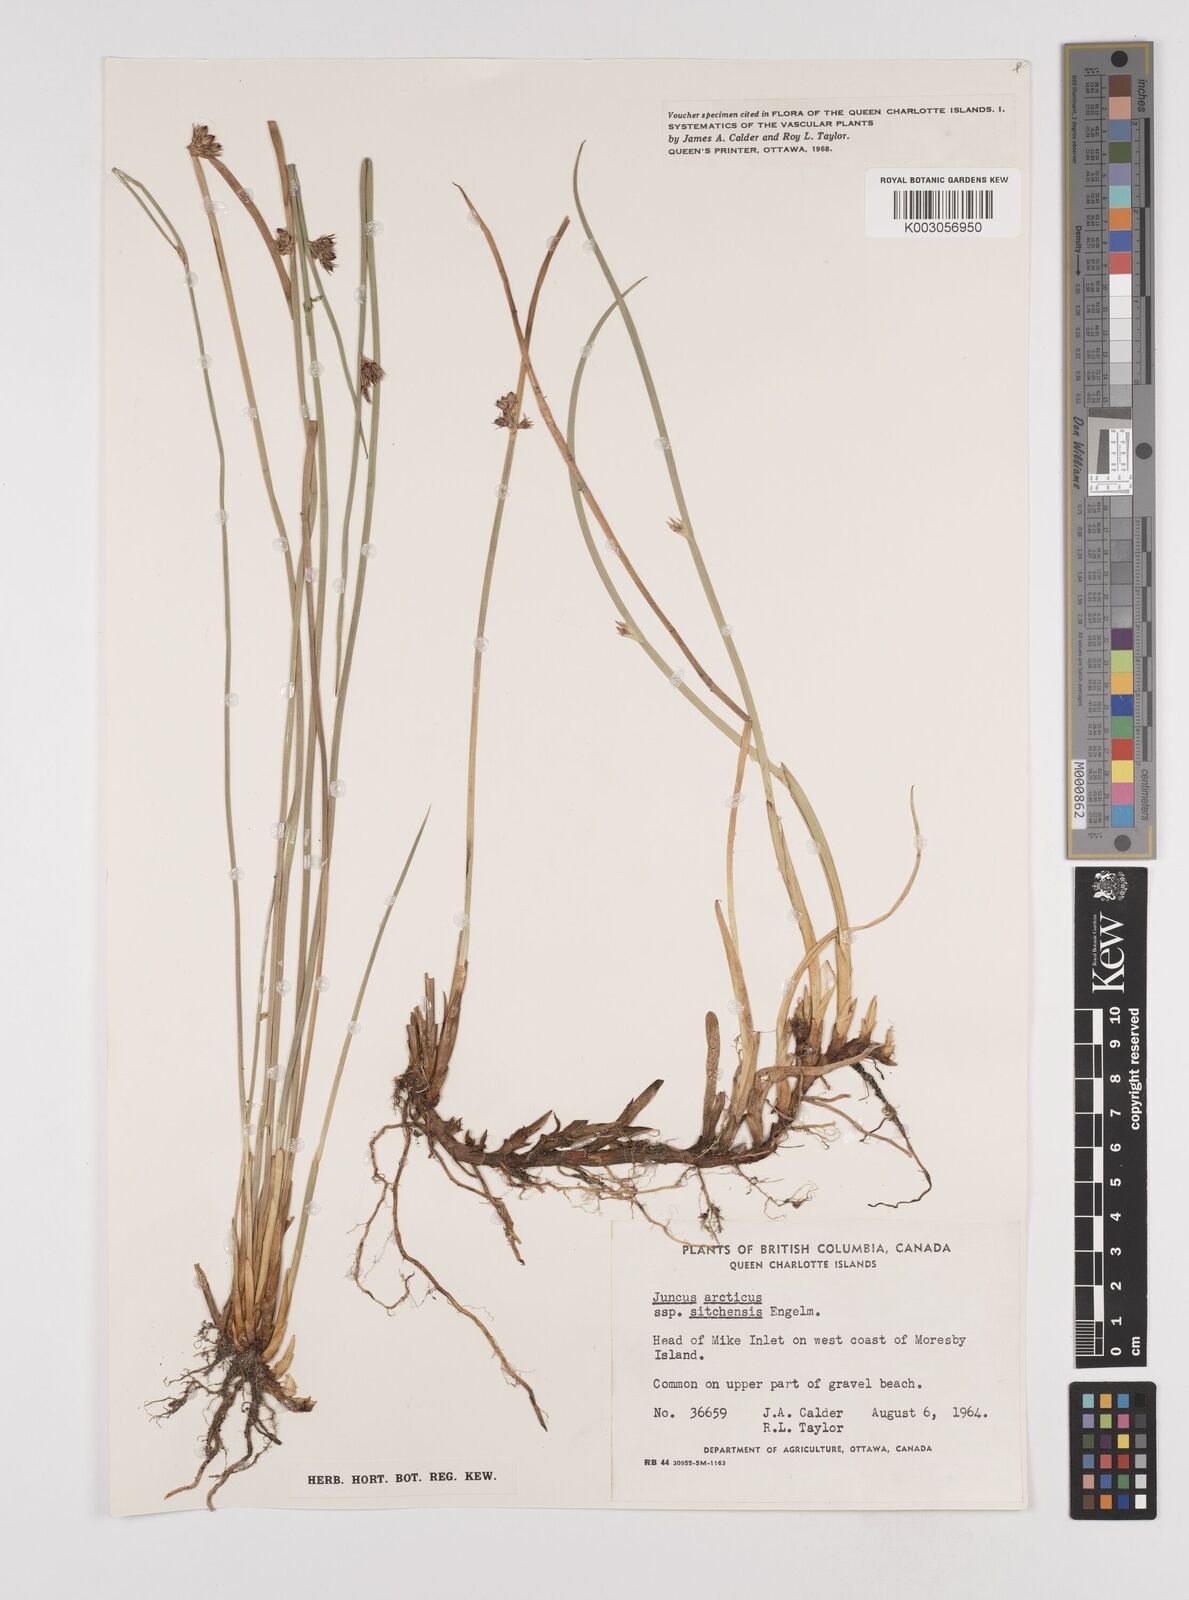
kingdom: Plantae
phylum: Tracheophyta
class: Liliopsida
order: Poales
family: Juncaceae
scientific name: Juncaceae
